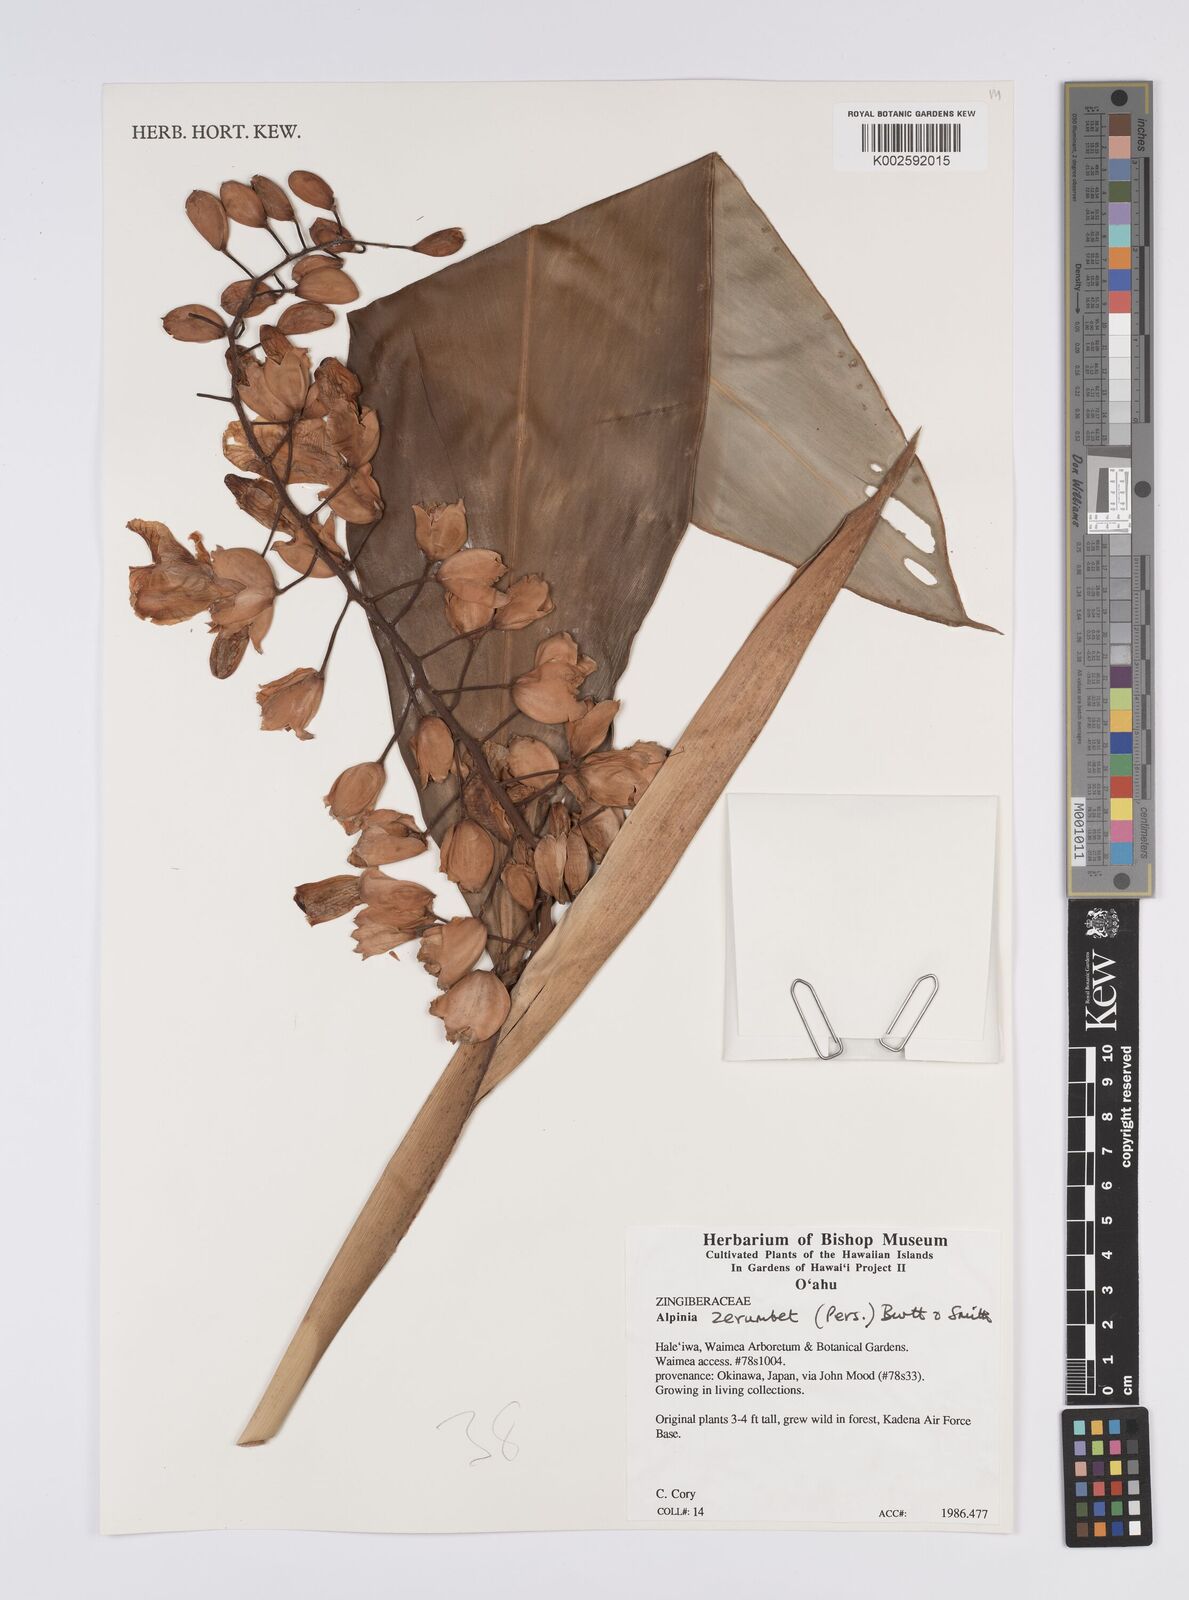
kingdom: Plantae
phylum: Tracheophyta
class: Liliopsida
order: Zingiberales
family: Zingiberaceae
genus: Alpinia
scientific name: Alpinia zerumbet
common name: Shellplant
